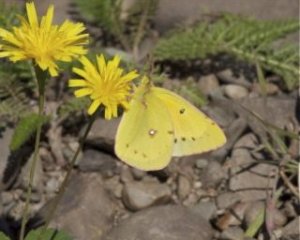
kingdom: Animalia
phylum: Arthropoda
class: Insecta
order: Lepidoptera
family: Pieridae
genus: Colias
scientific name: Colias eurytheme
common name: Orange Sulphur
